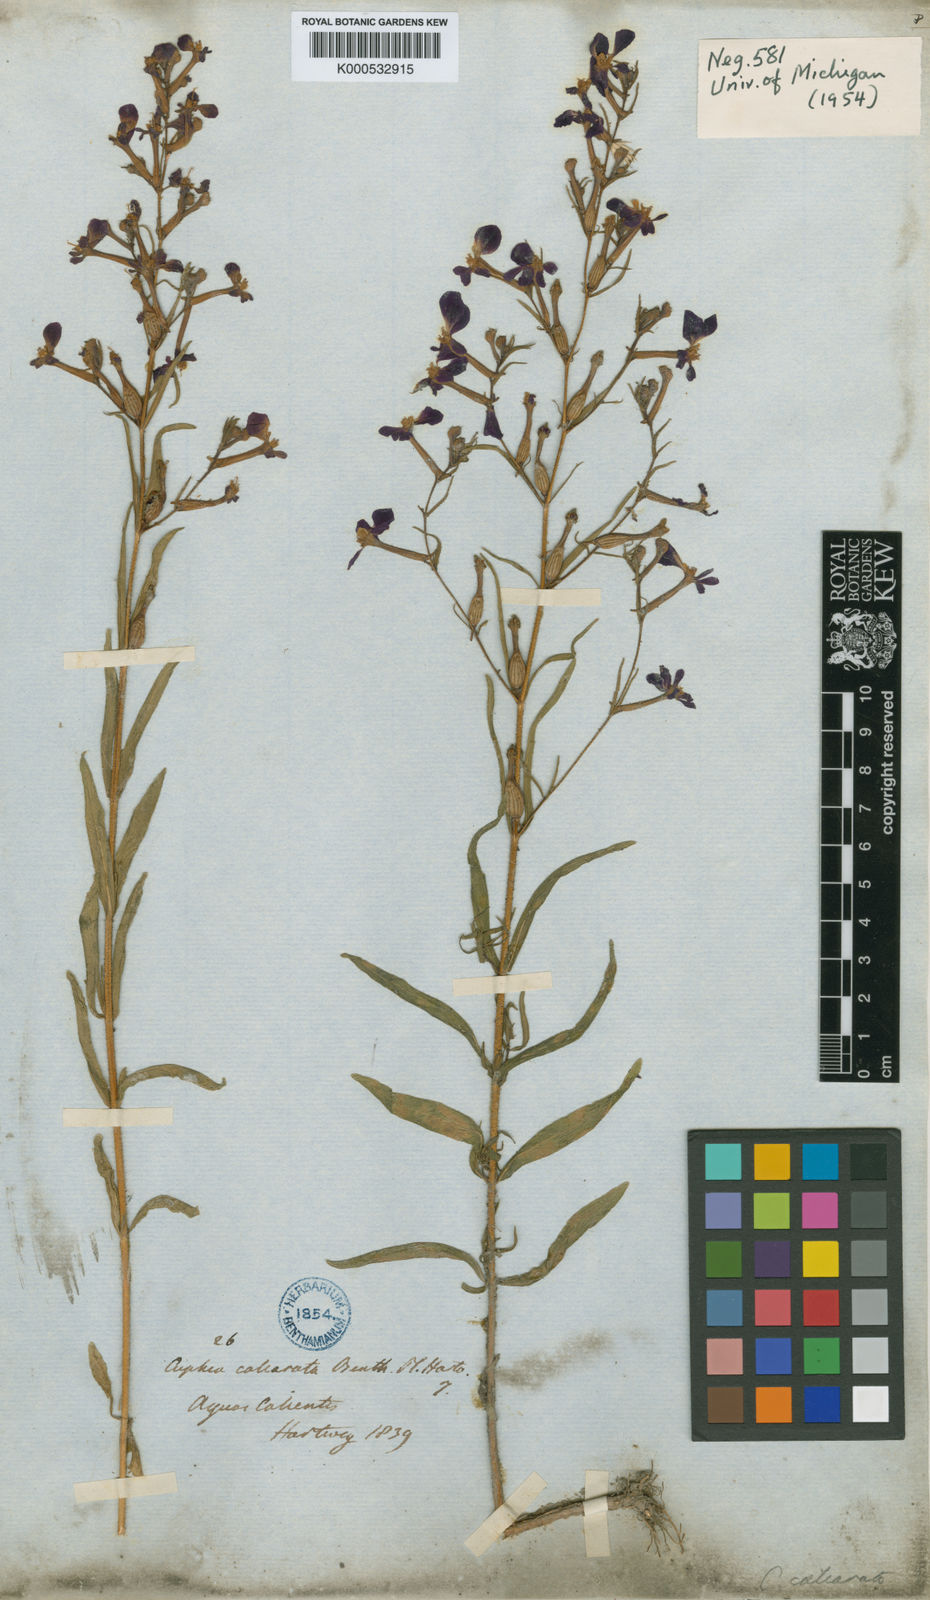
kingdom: Plantae
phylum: Tracheophyta
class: Magnoliopsida
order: Myrtales
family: Lythraceae
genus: Cuphea
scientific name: Cuphea calcarata
